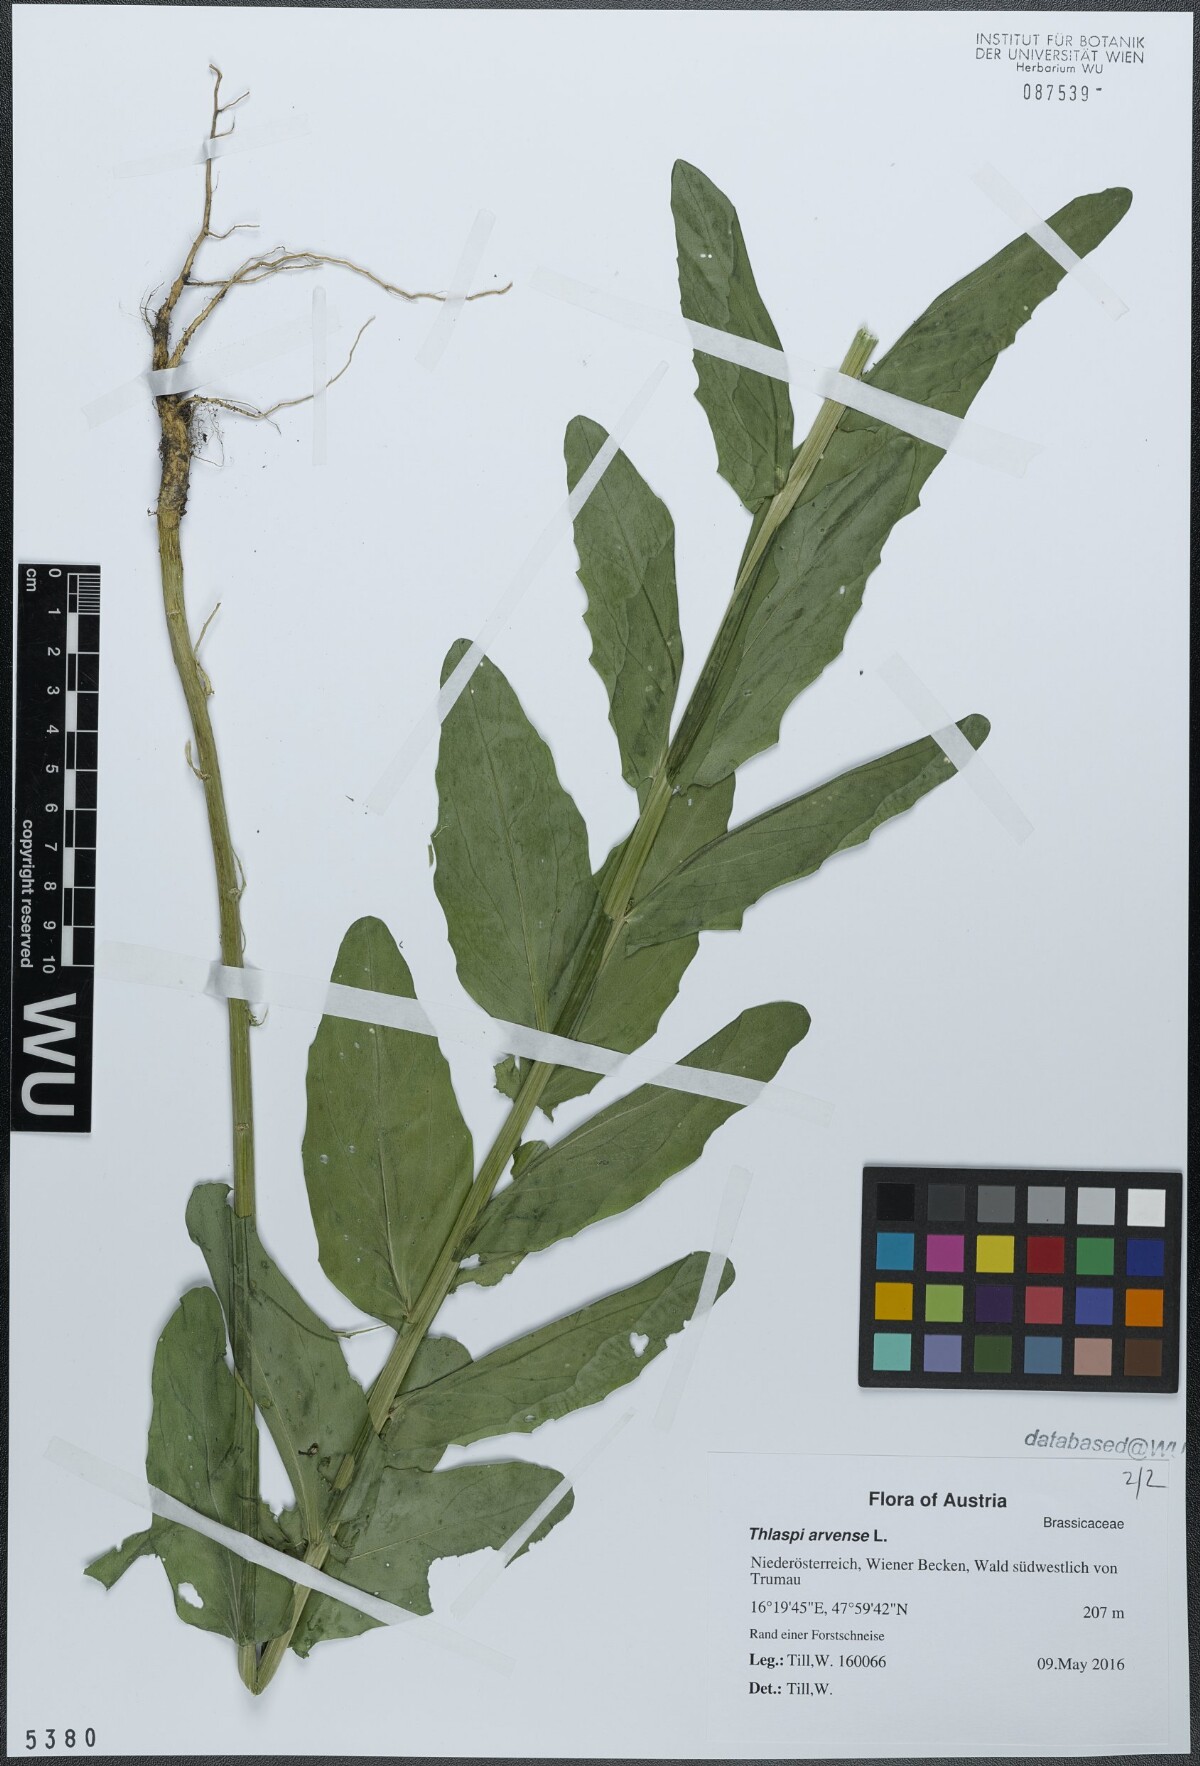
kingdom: Plantae
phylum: Tracheophyta
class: Magnoliopsida
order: Brassicales
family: Brassicaceae
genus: Thlaspi
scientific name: Thlaspi arvense
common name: Field pennycress
